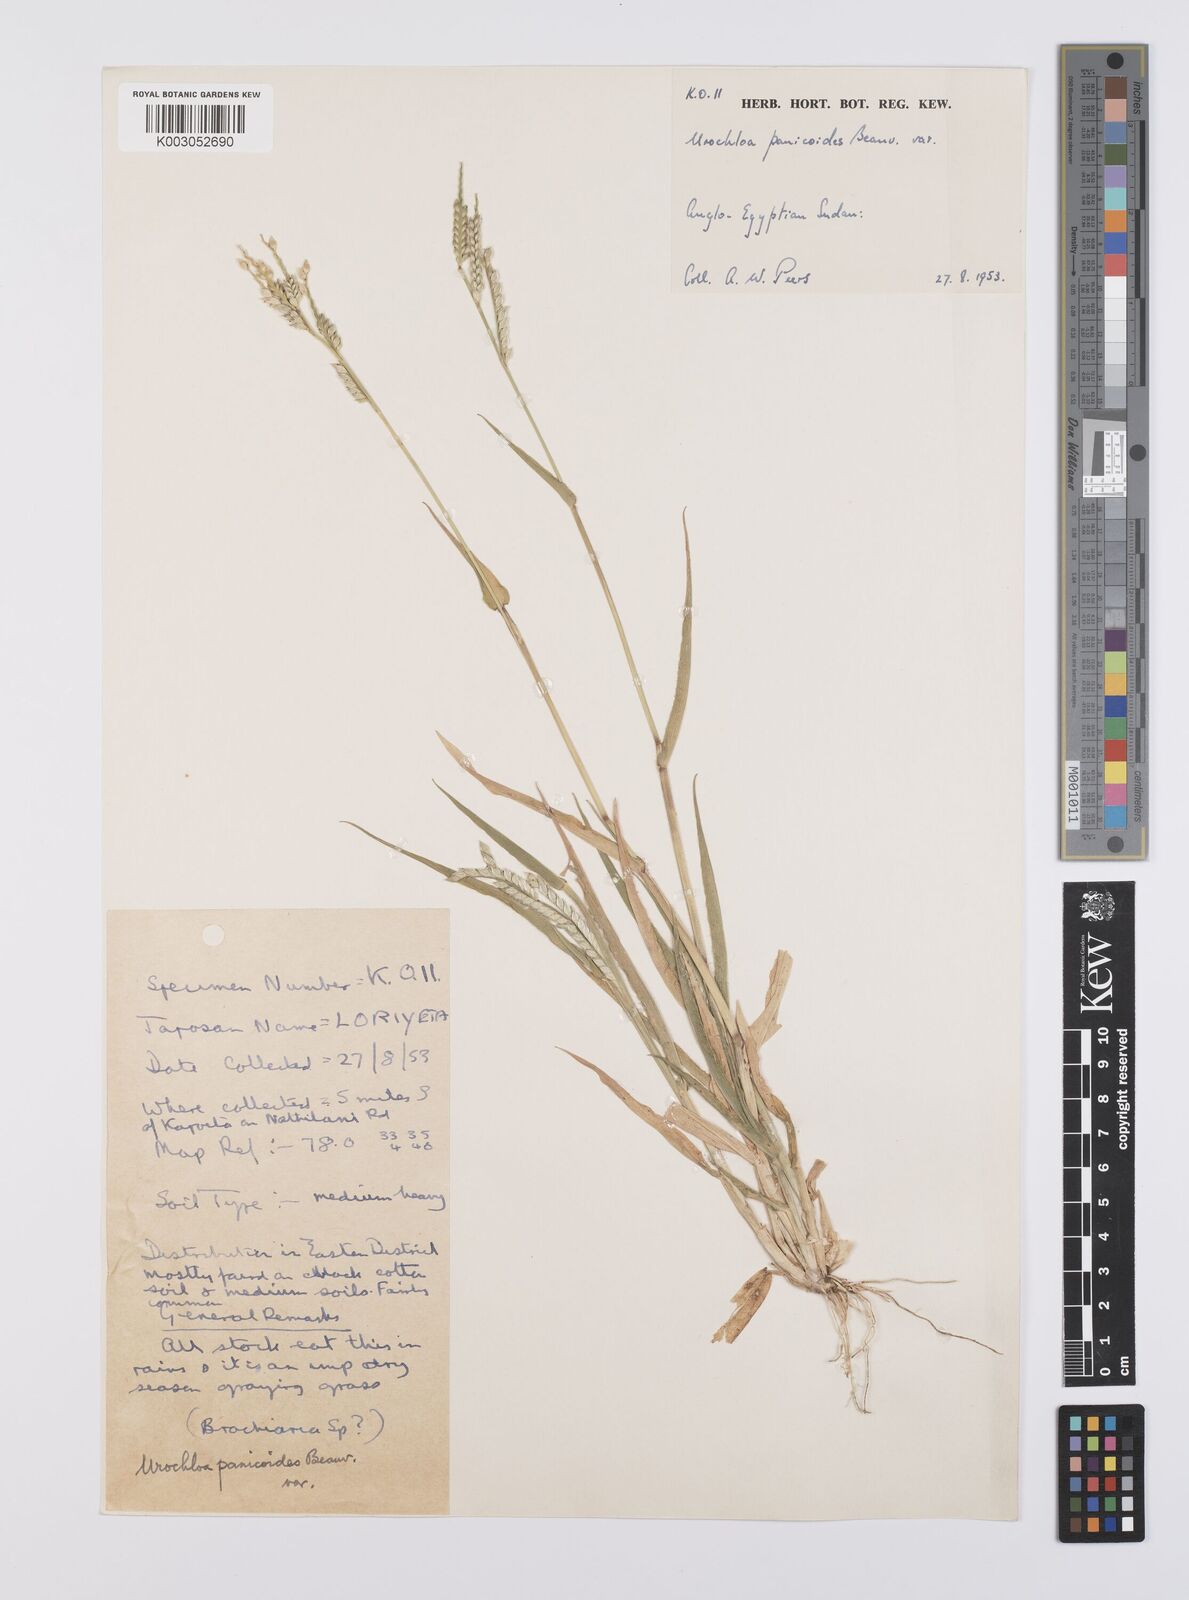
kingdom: Plantae
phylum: Tracheophyta
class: Liliopsida
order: Poales
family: Poaceae
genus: Urochloa
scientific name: Urochloa panicoides
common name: Sharp-flowered signal-grass
